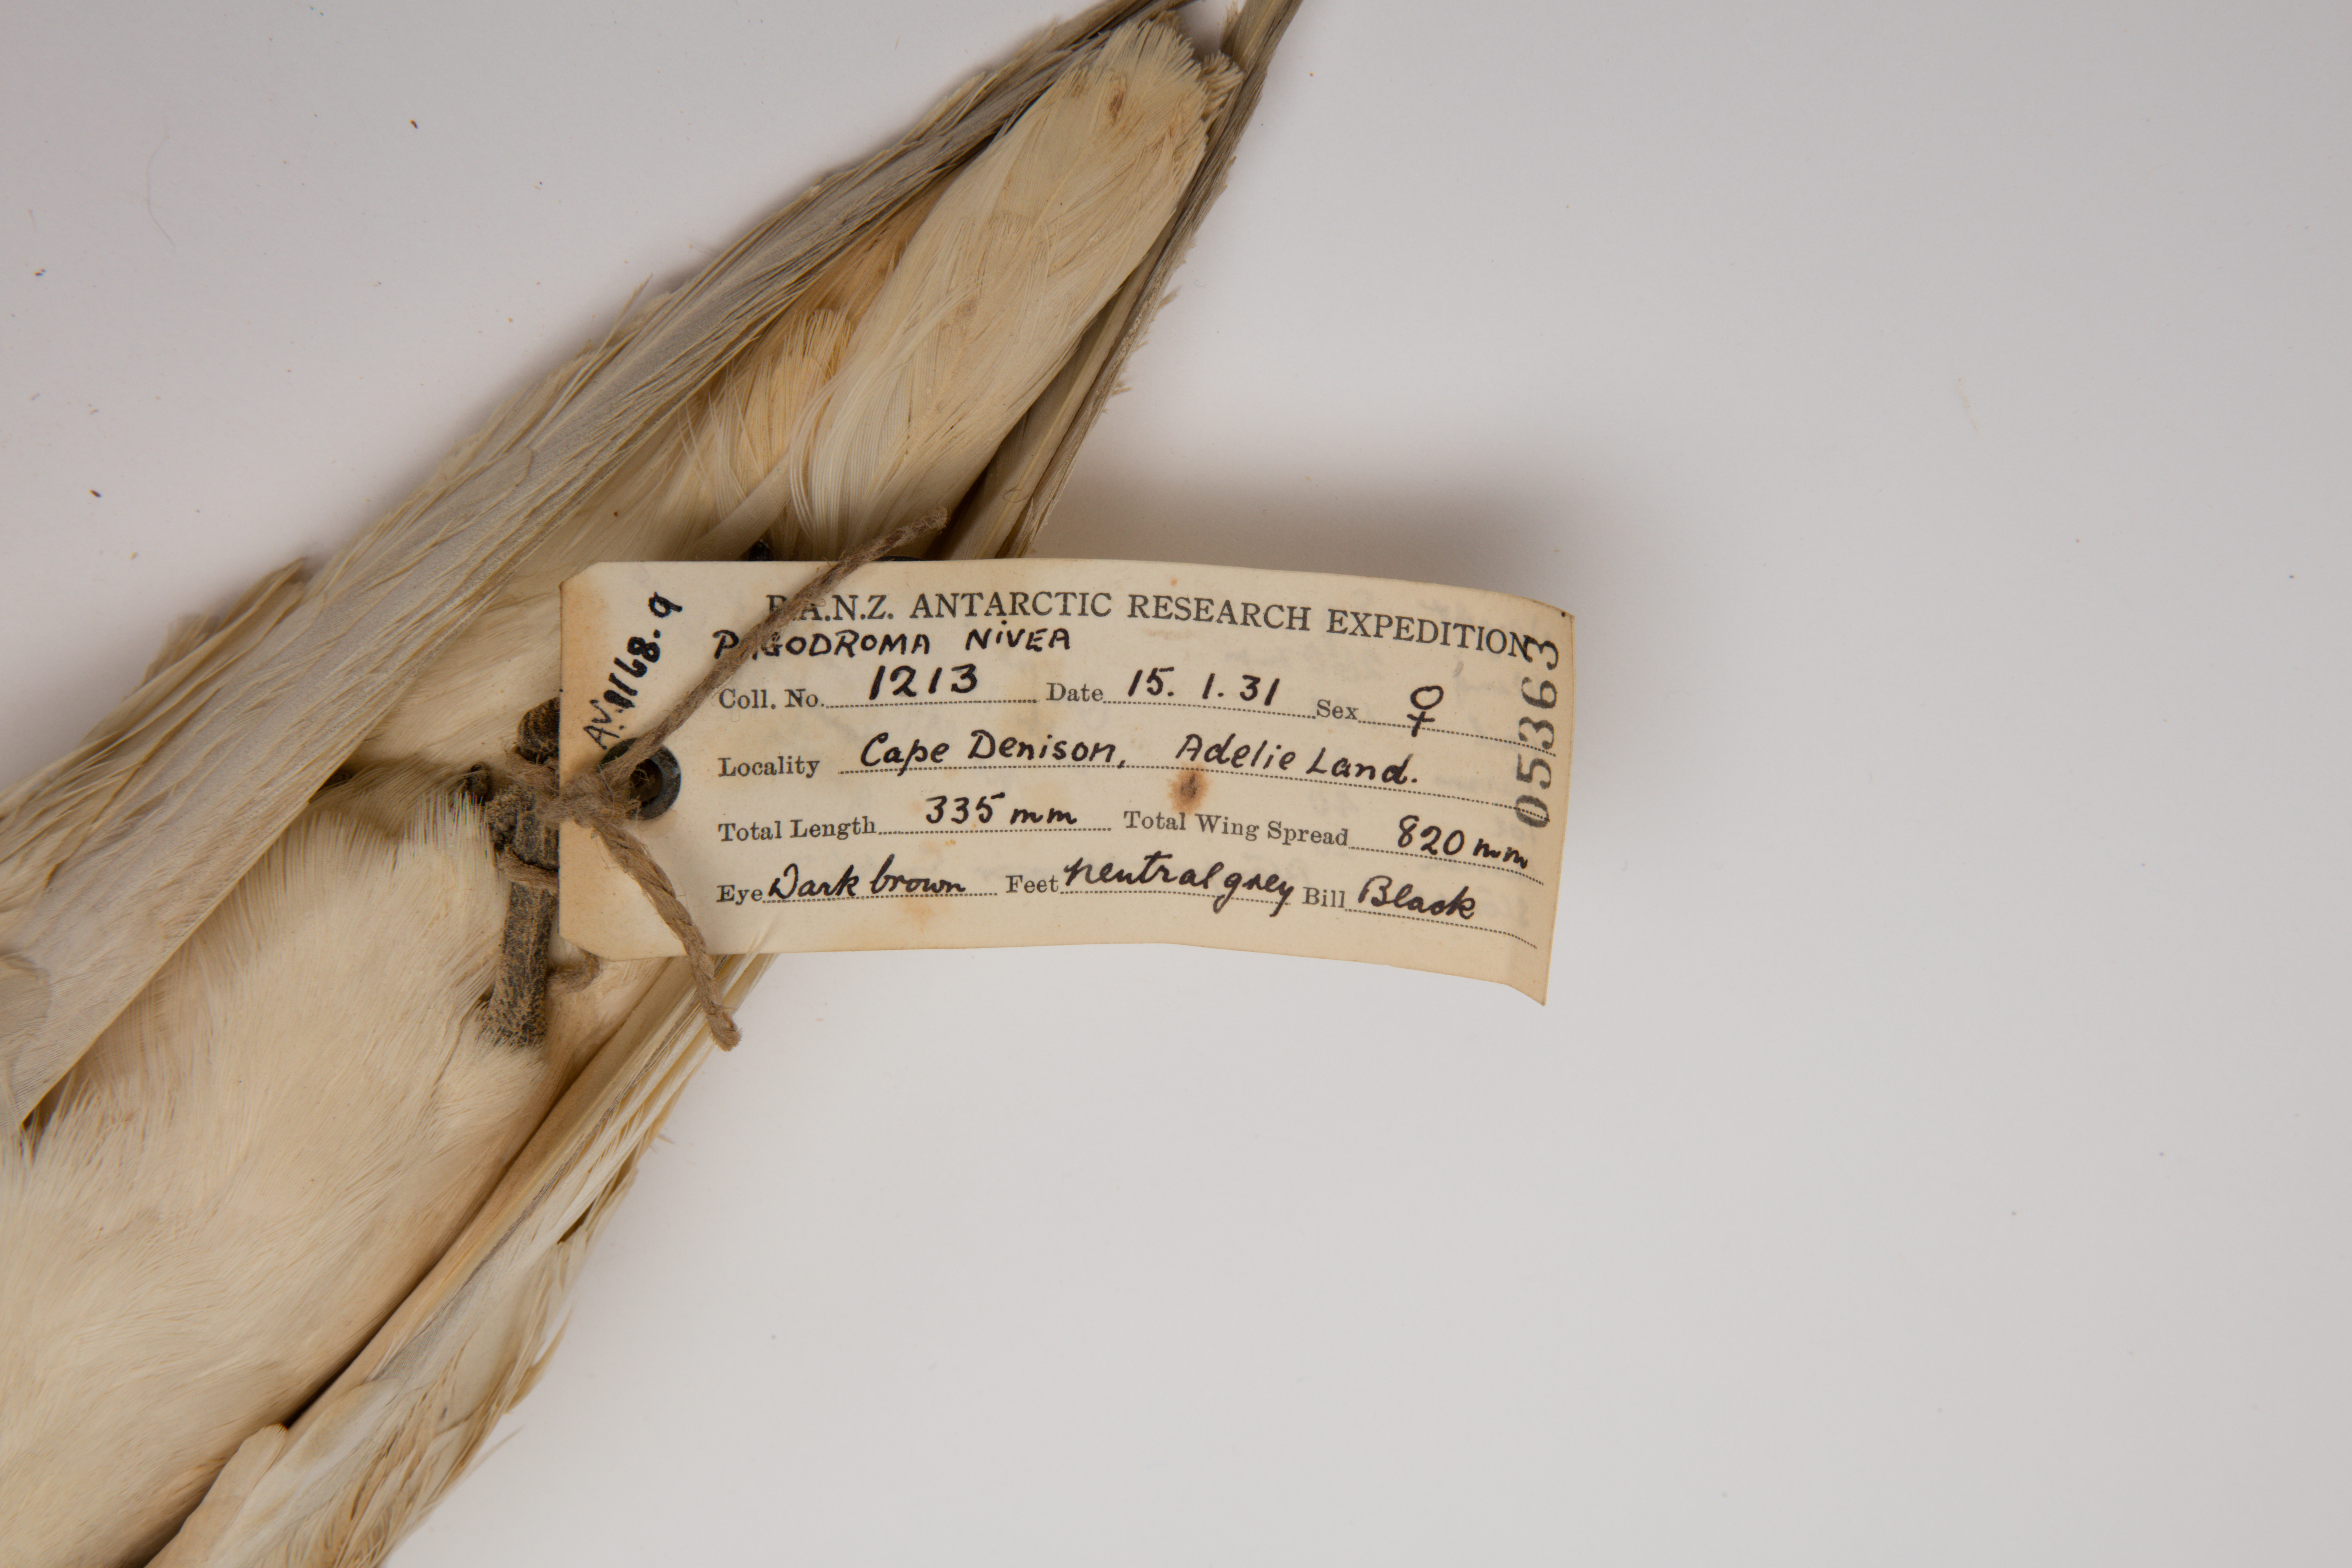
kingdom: Animalia
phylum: Chordata
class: Aves
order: Procellariiformes
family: Procellariidae
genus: Pagodroma
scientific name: Pagodroma nivea
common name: Snow petrel
